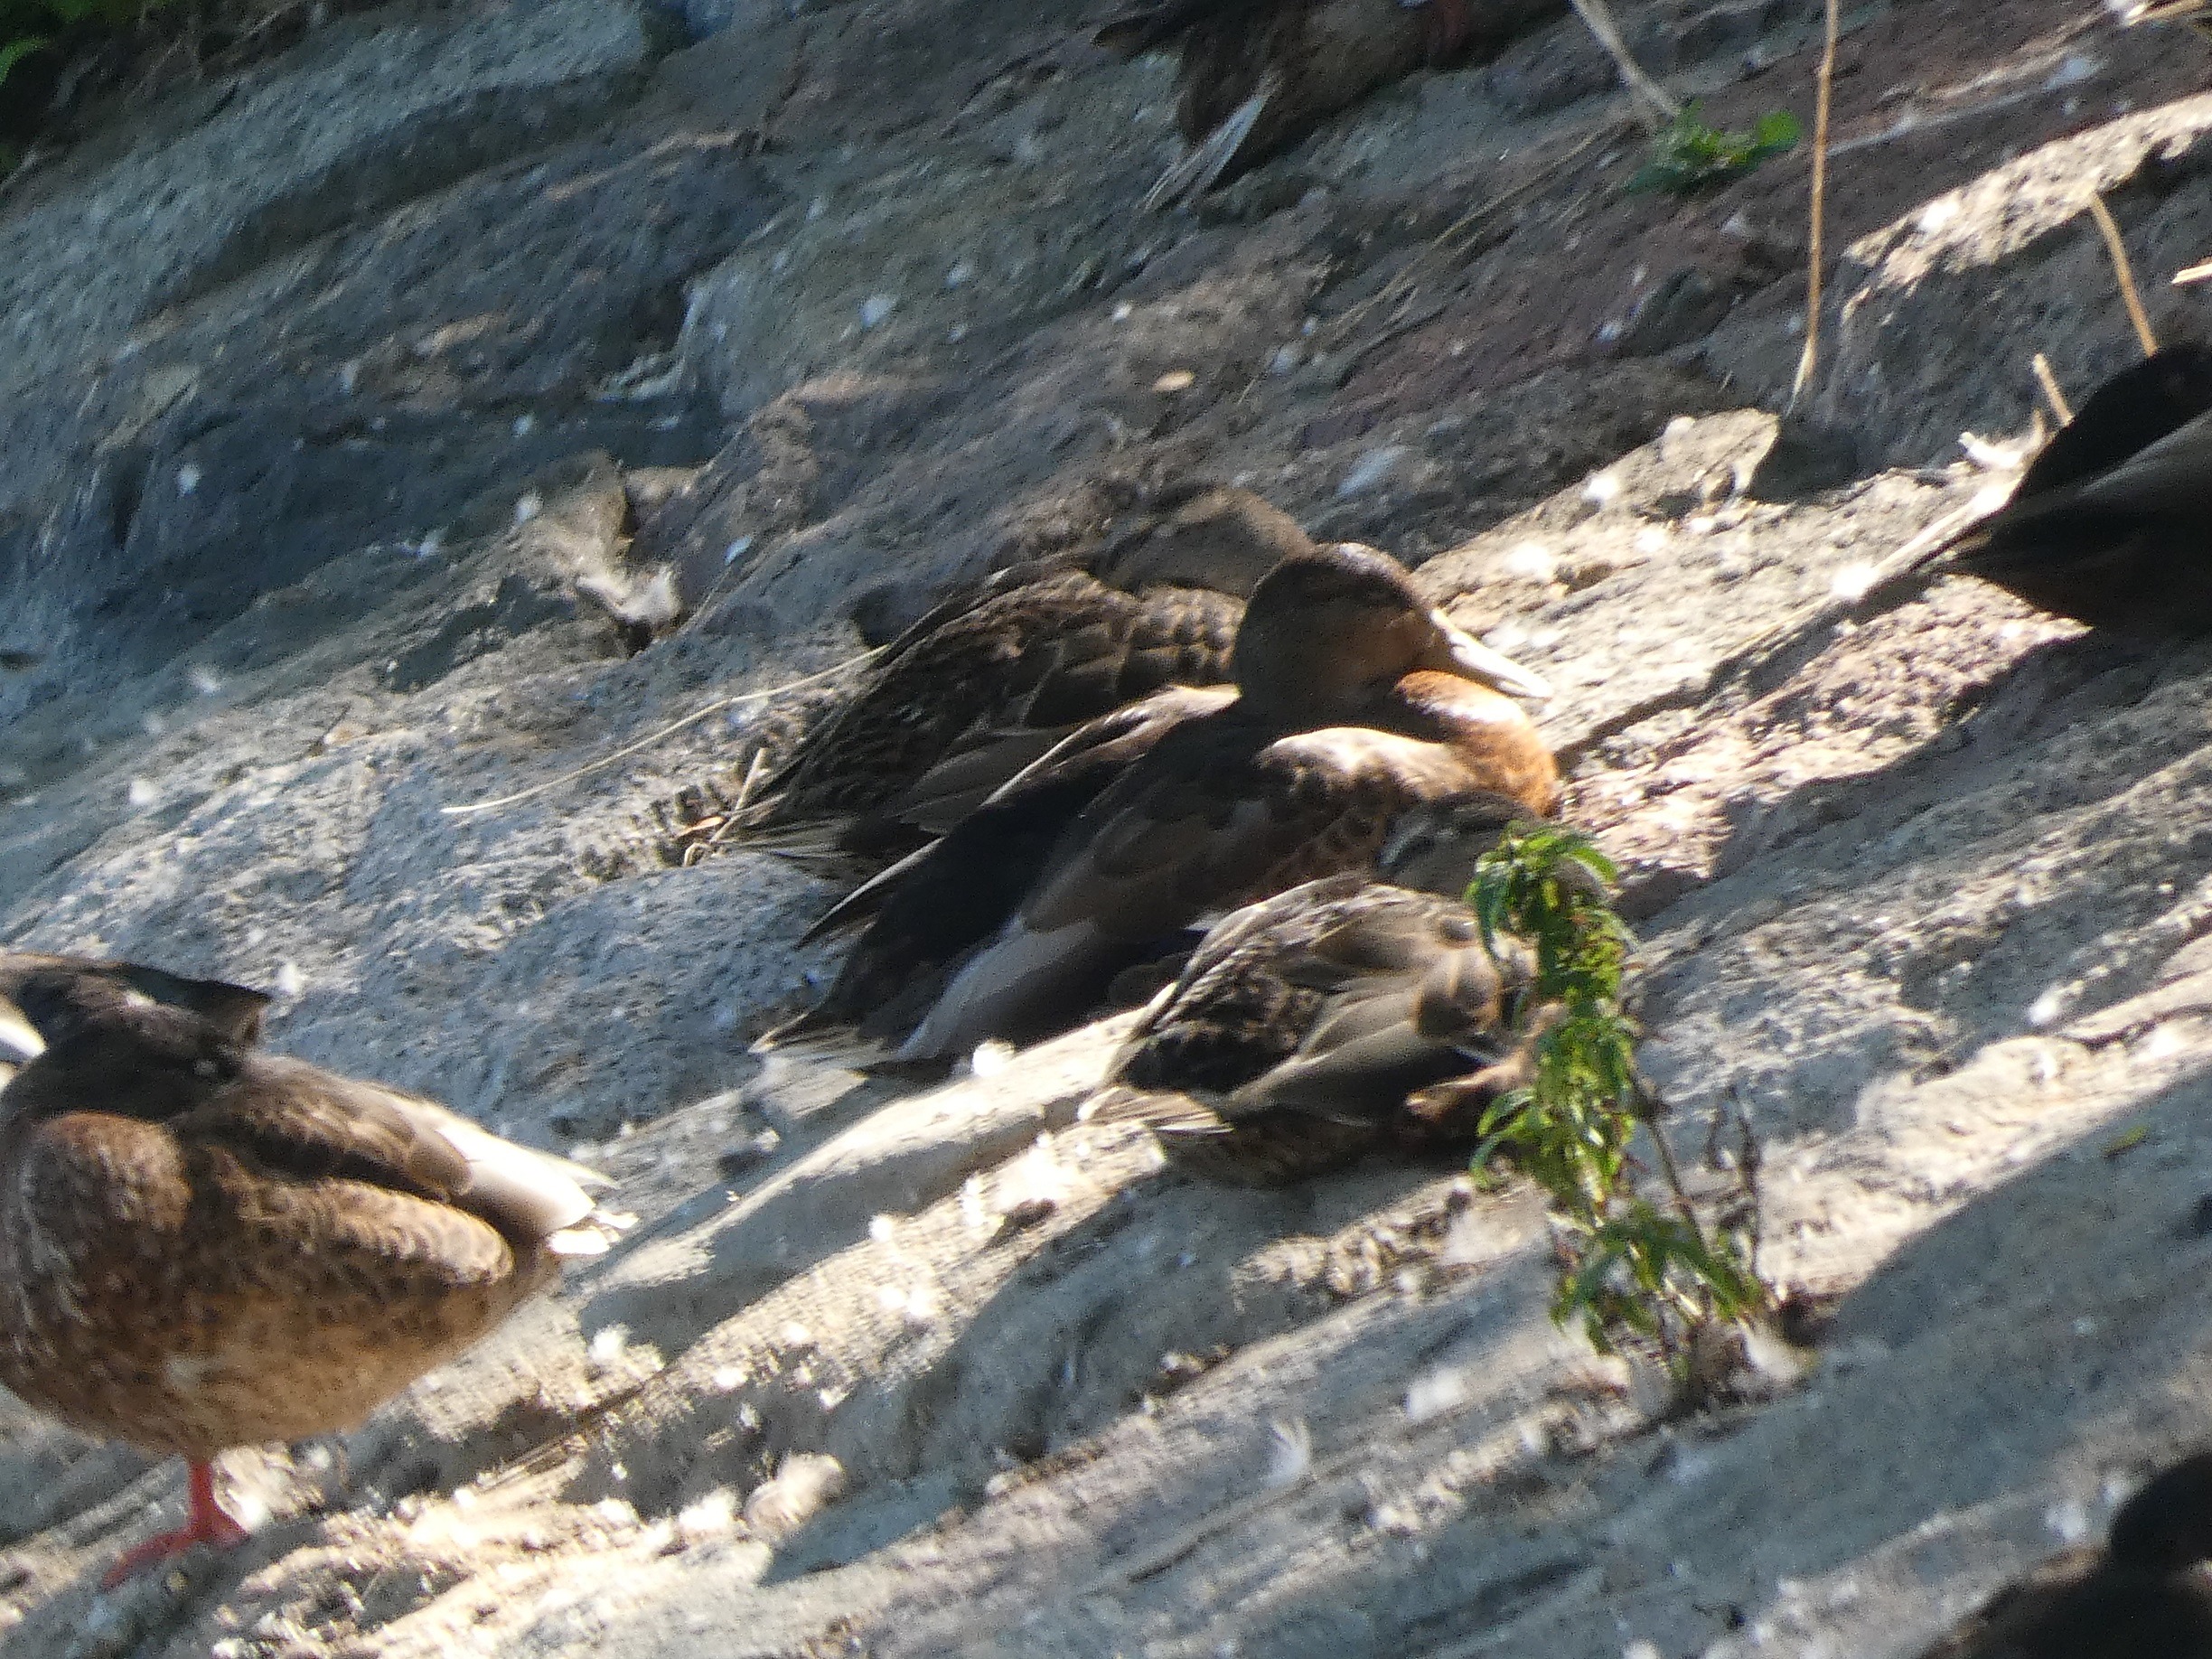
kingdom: Animalia
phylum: Chordata
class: Aves
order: Anseriformes
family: Anatidae
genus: Anas
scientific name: Anas platyrhynchos
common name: Gråand
